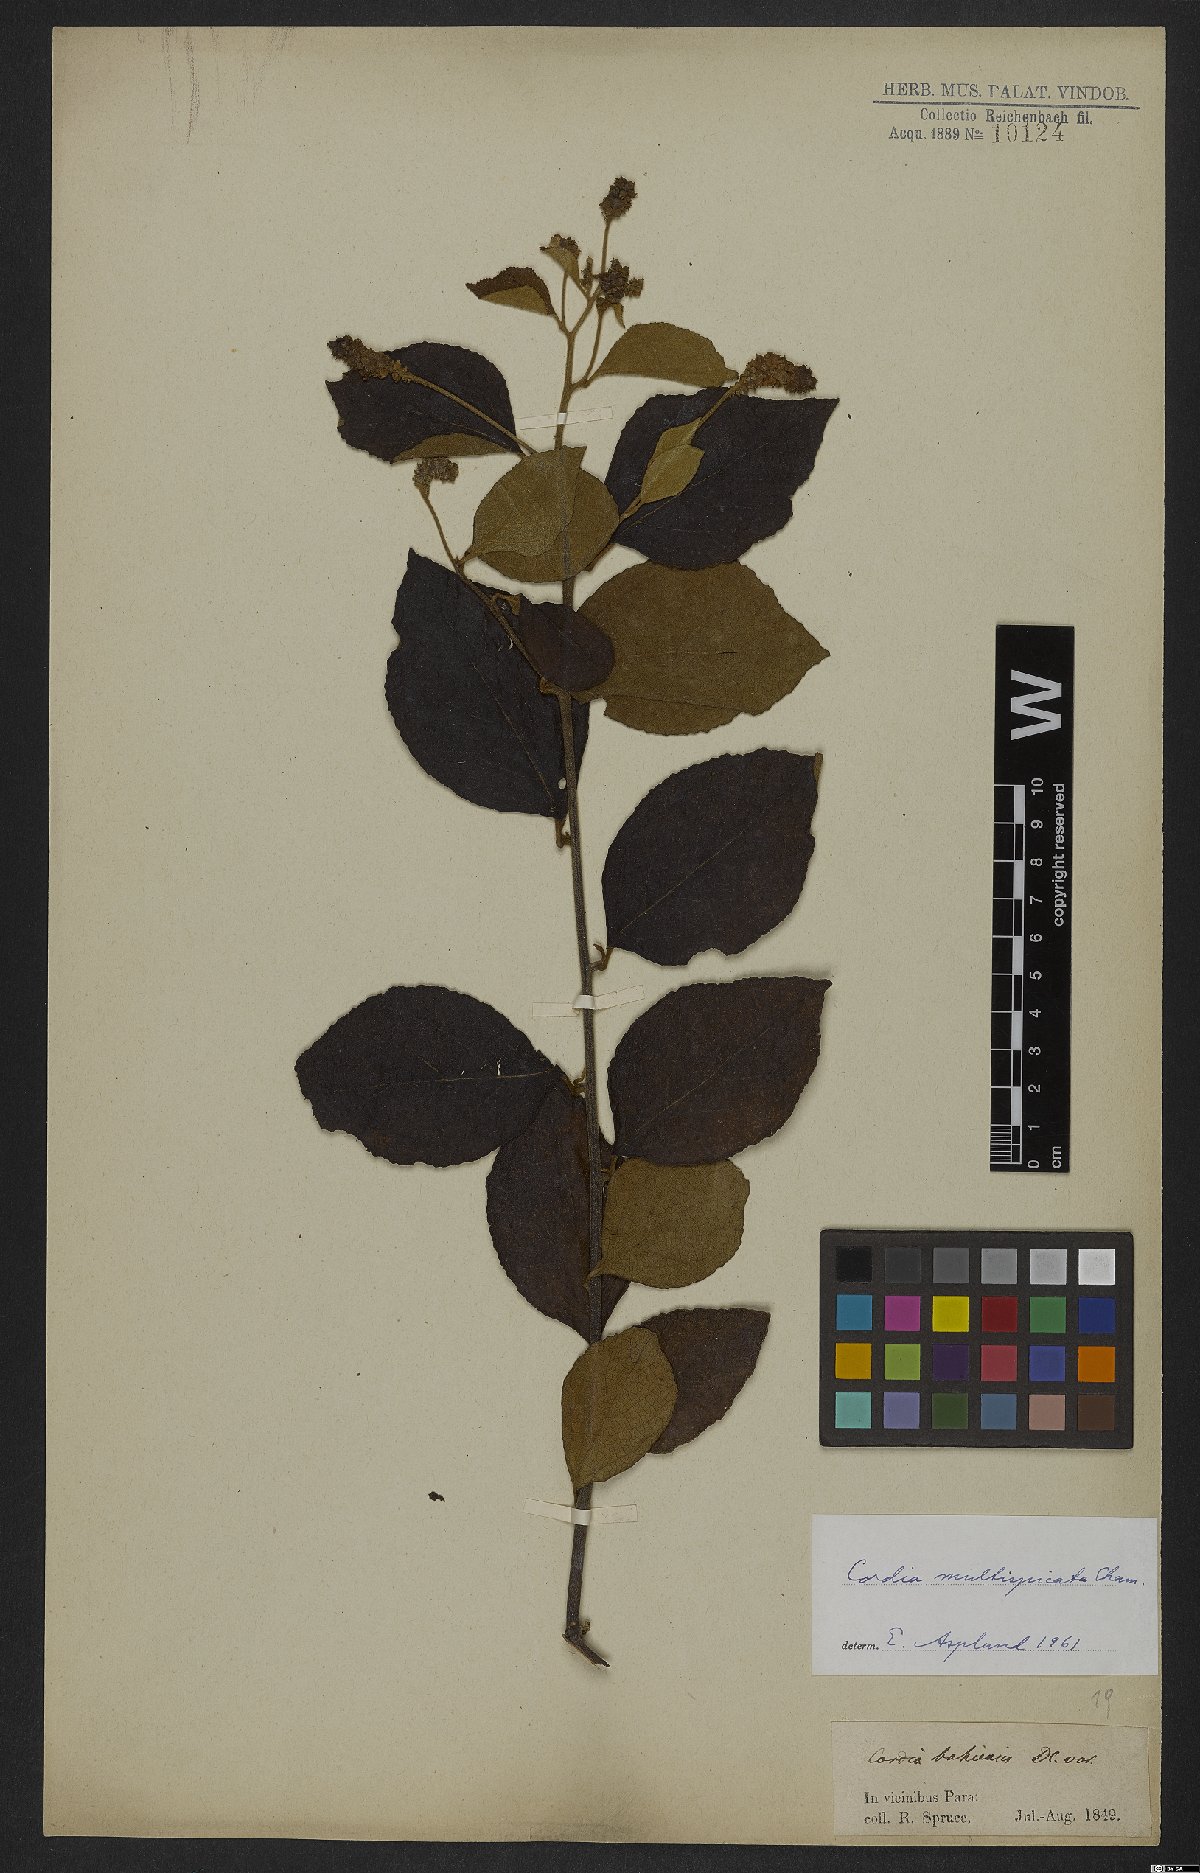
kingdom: Plantae
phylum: Tracheophyta
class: Magnoliopsida
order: Boraginales
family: Cordiaceae
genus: Varronia
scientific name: Varronia multispicata
